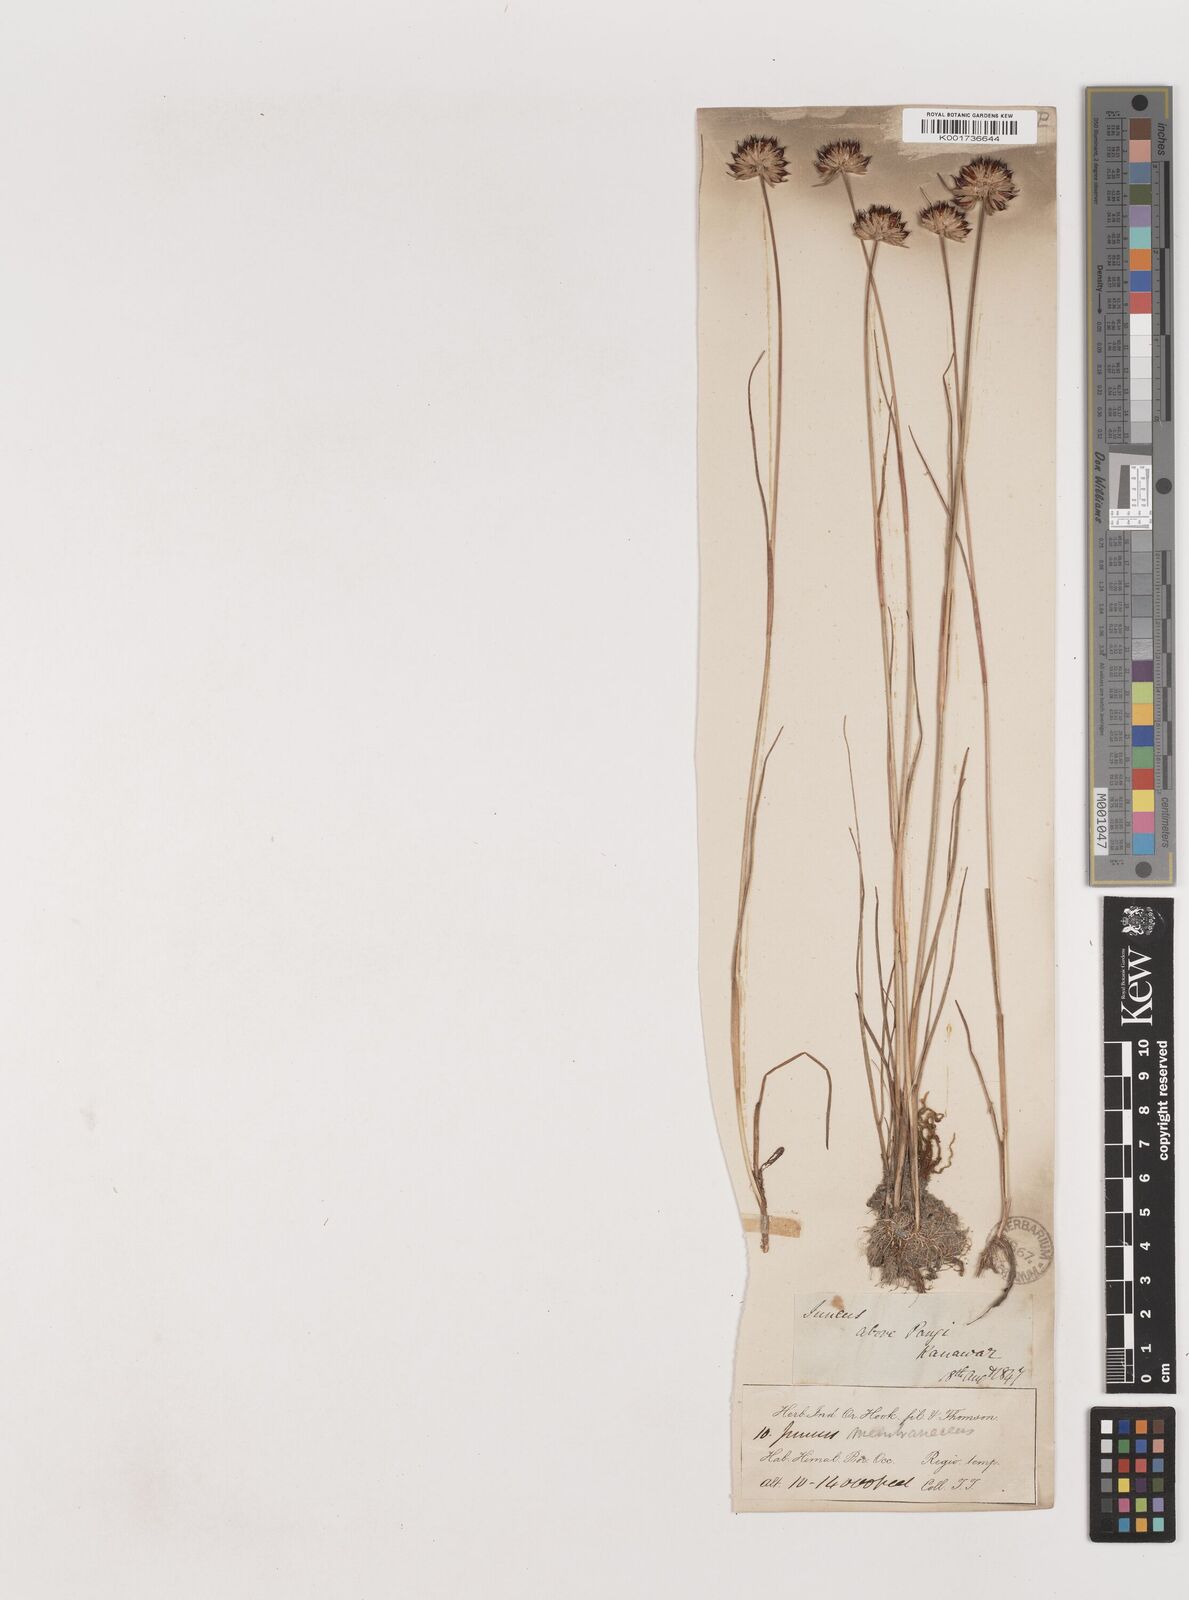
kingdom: Plantae
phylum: Tracheophyta
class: Liliopsida
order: Poales
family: Juncaceae
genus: Juncus
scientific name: Juncus membranaceus
